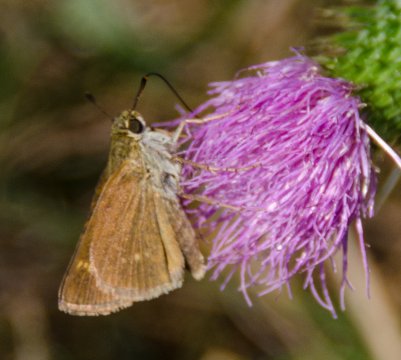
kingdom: Animalia
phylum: Arthropoda
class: Insecta
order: Lepidoptera
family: Hesperiidae
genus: Polites
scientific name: Polites
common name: Crossline Skipper
